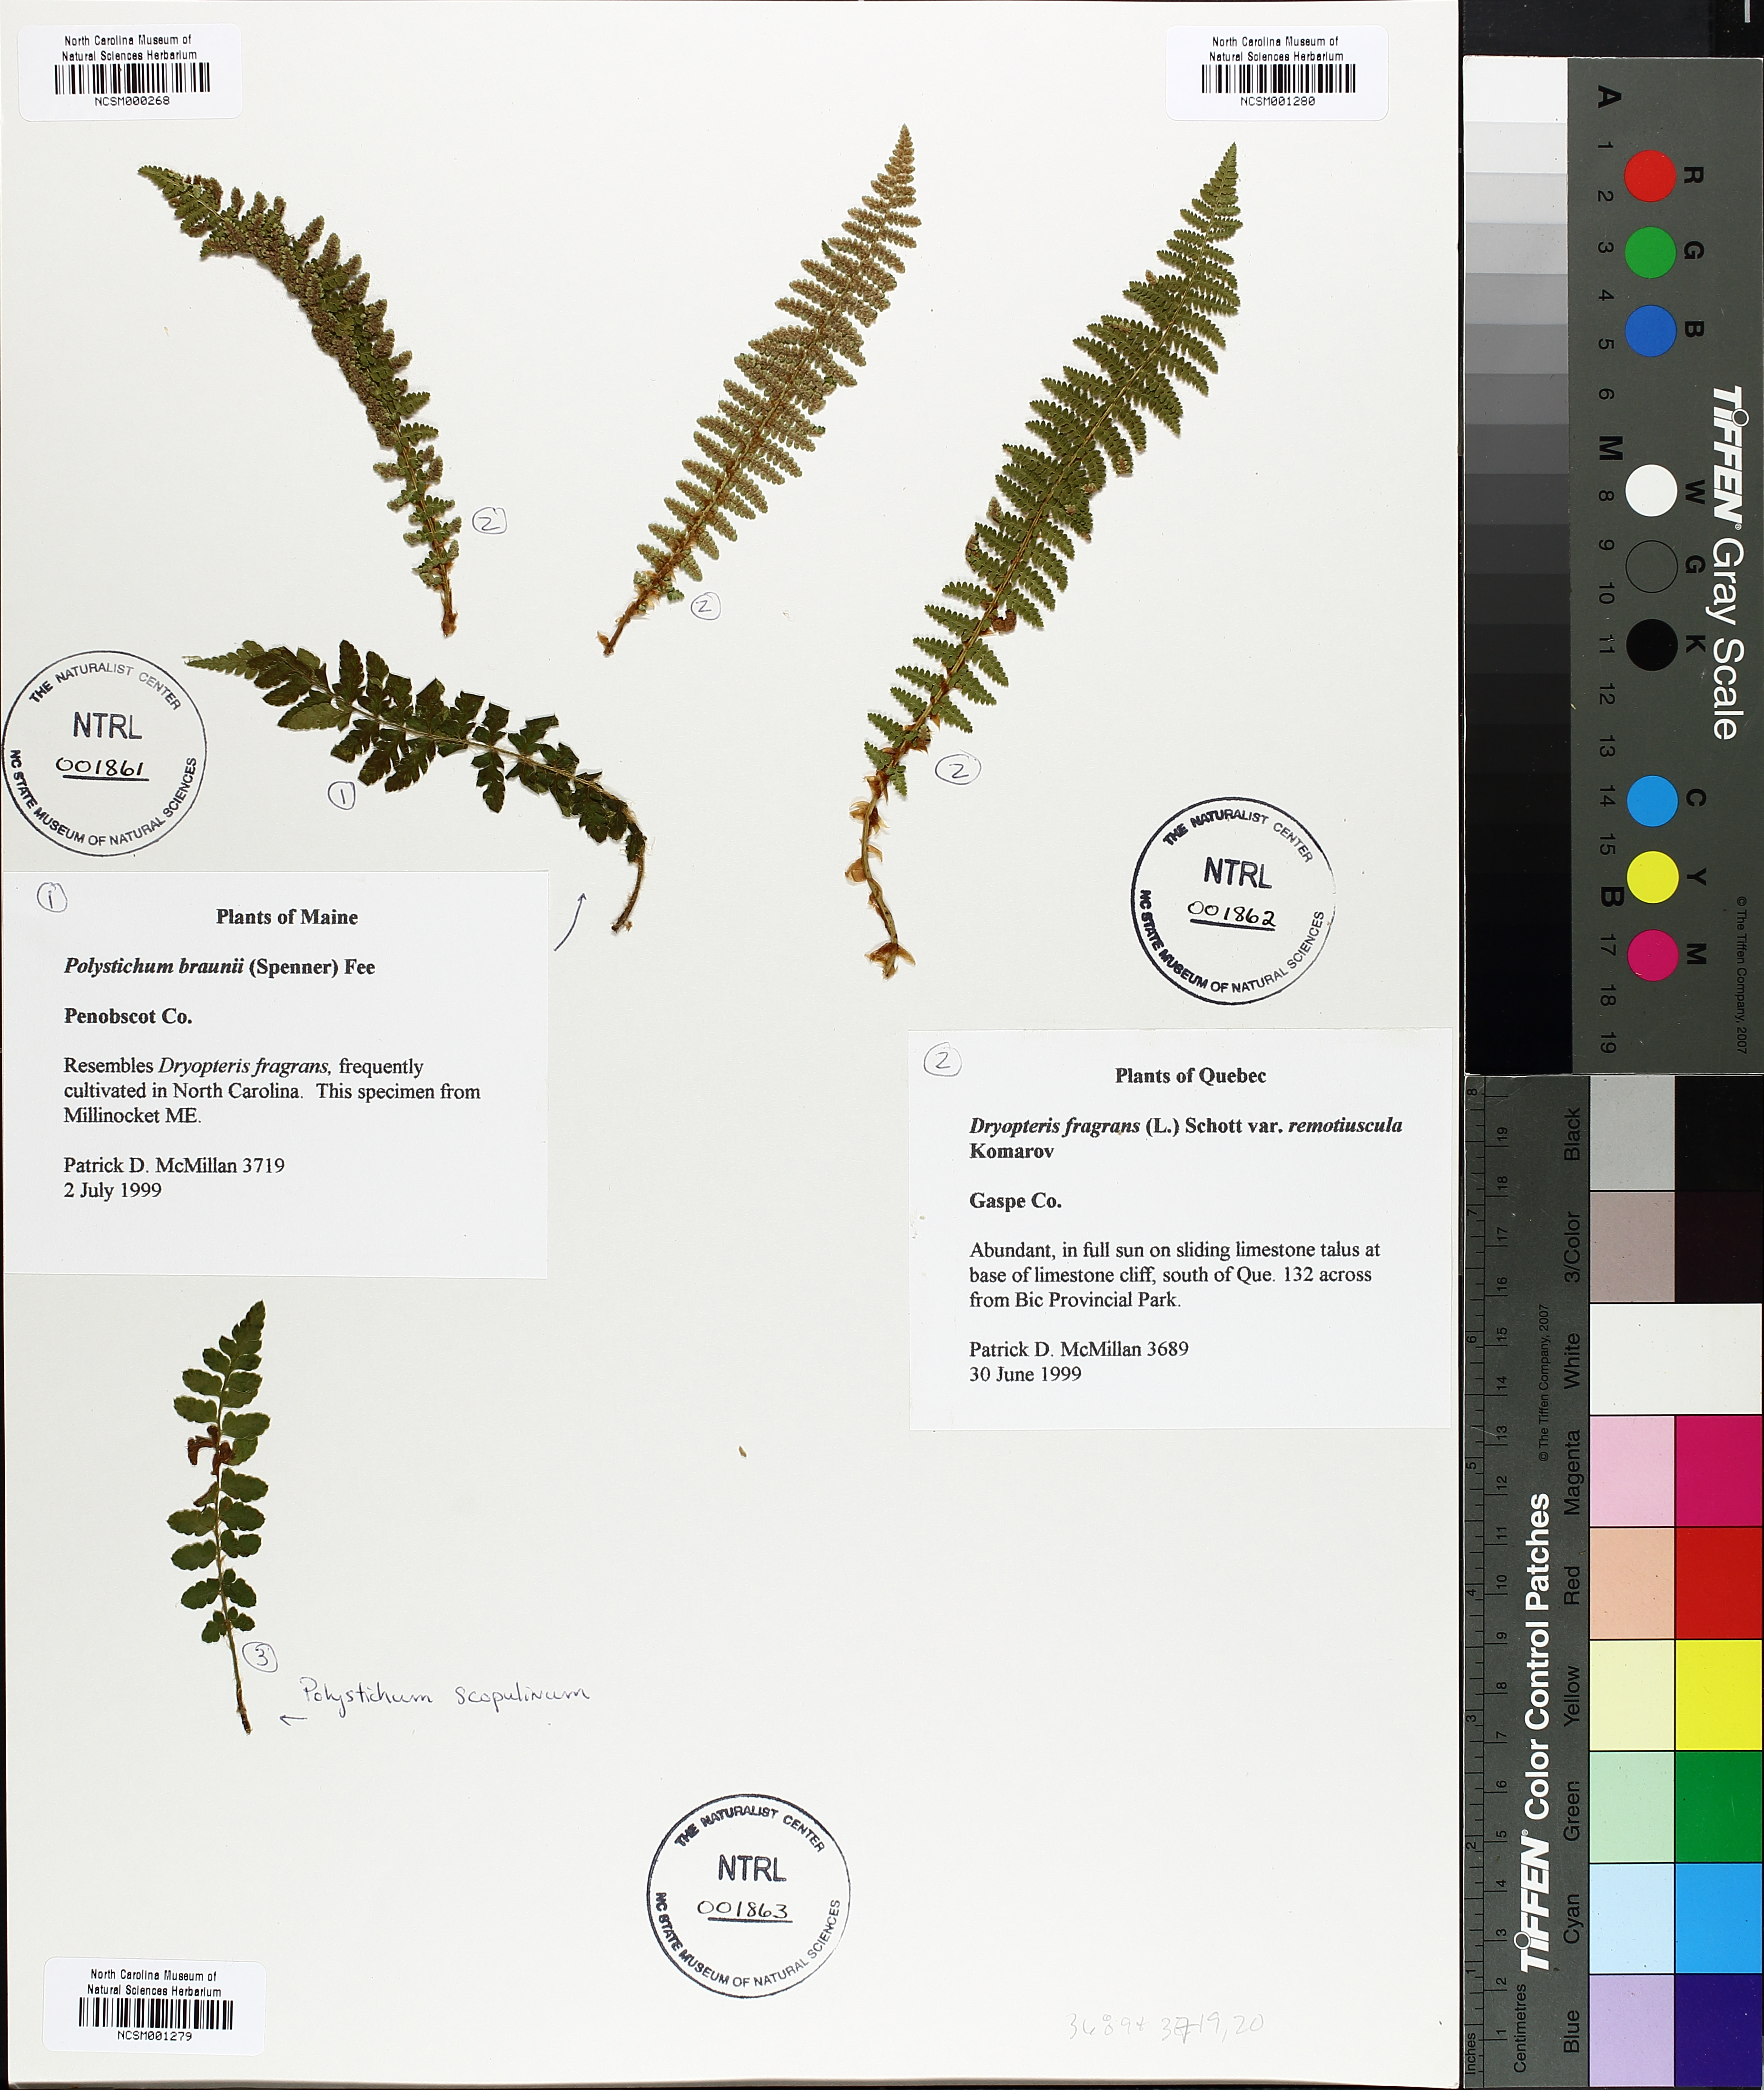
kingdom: Plantae
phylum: Tracheophyta
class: Polypodiopsida
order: Polypodiales
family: Dryopteridaceae
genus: Polystichum
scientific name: Polystichum braunii
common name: Braun's holly fern
